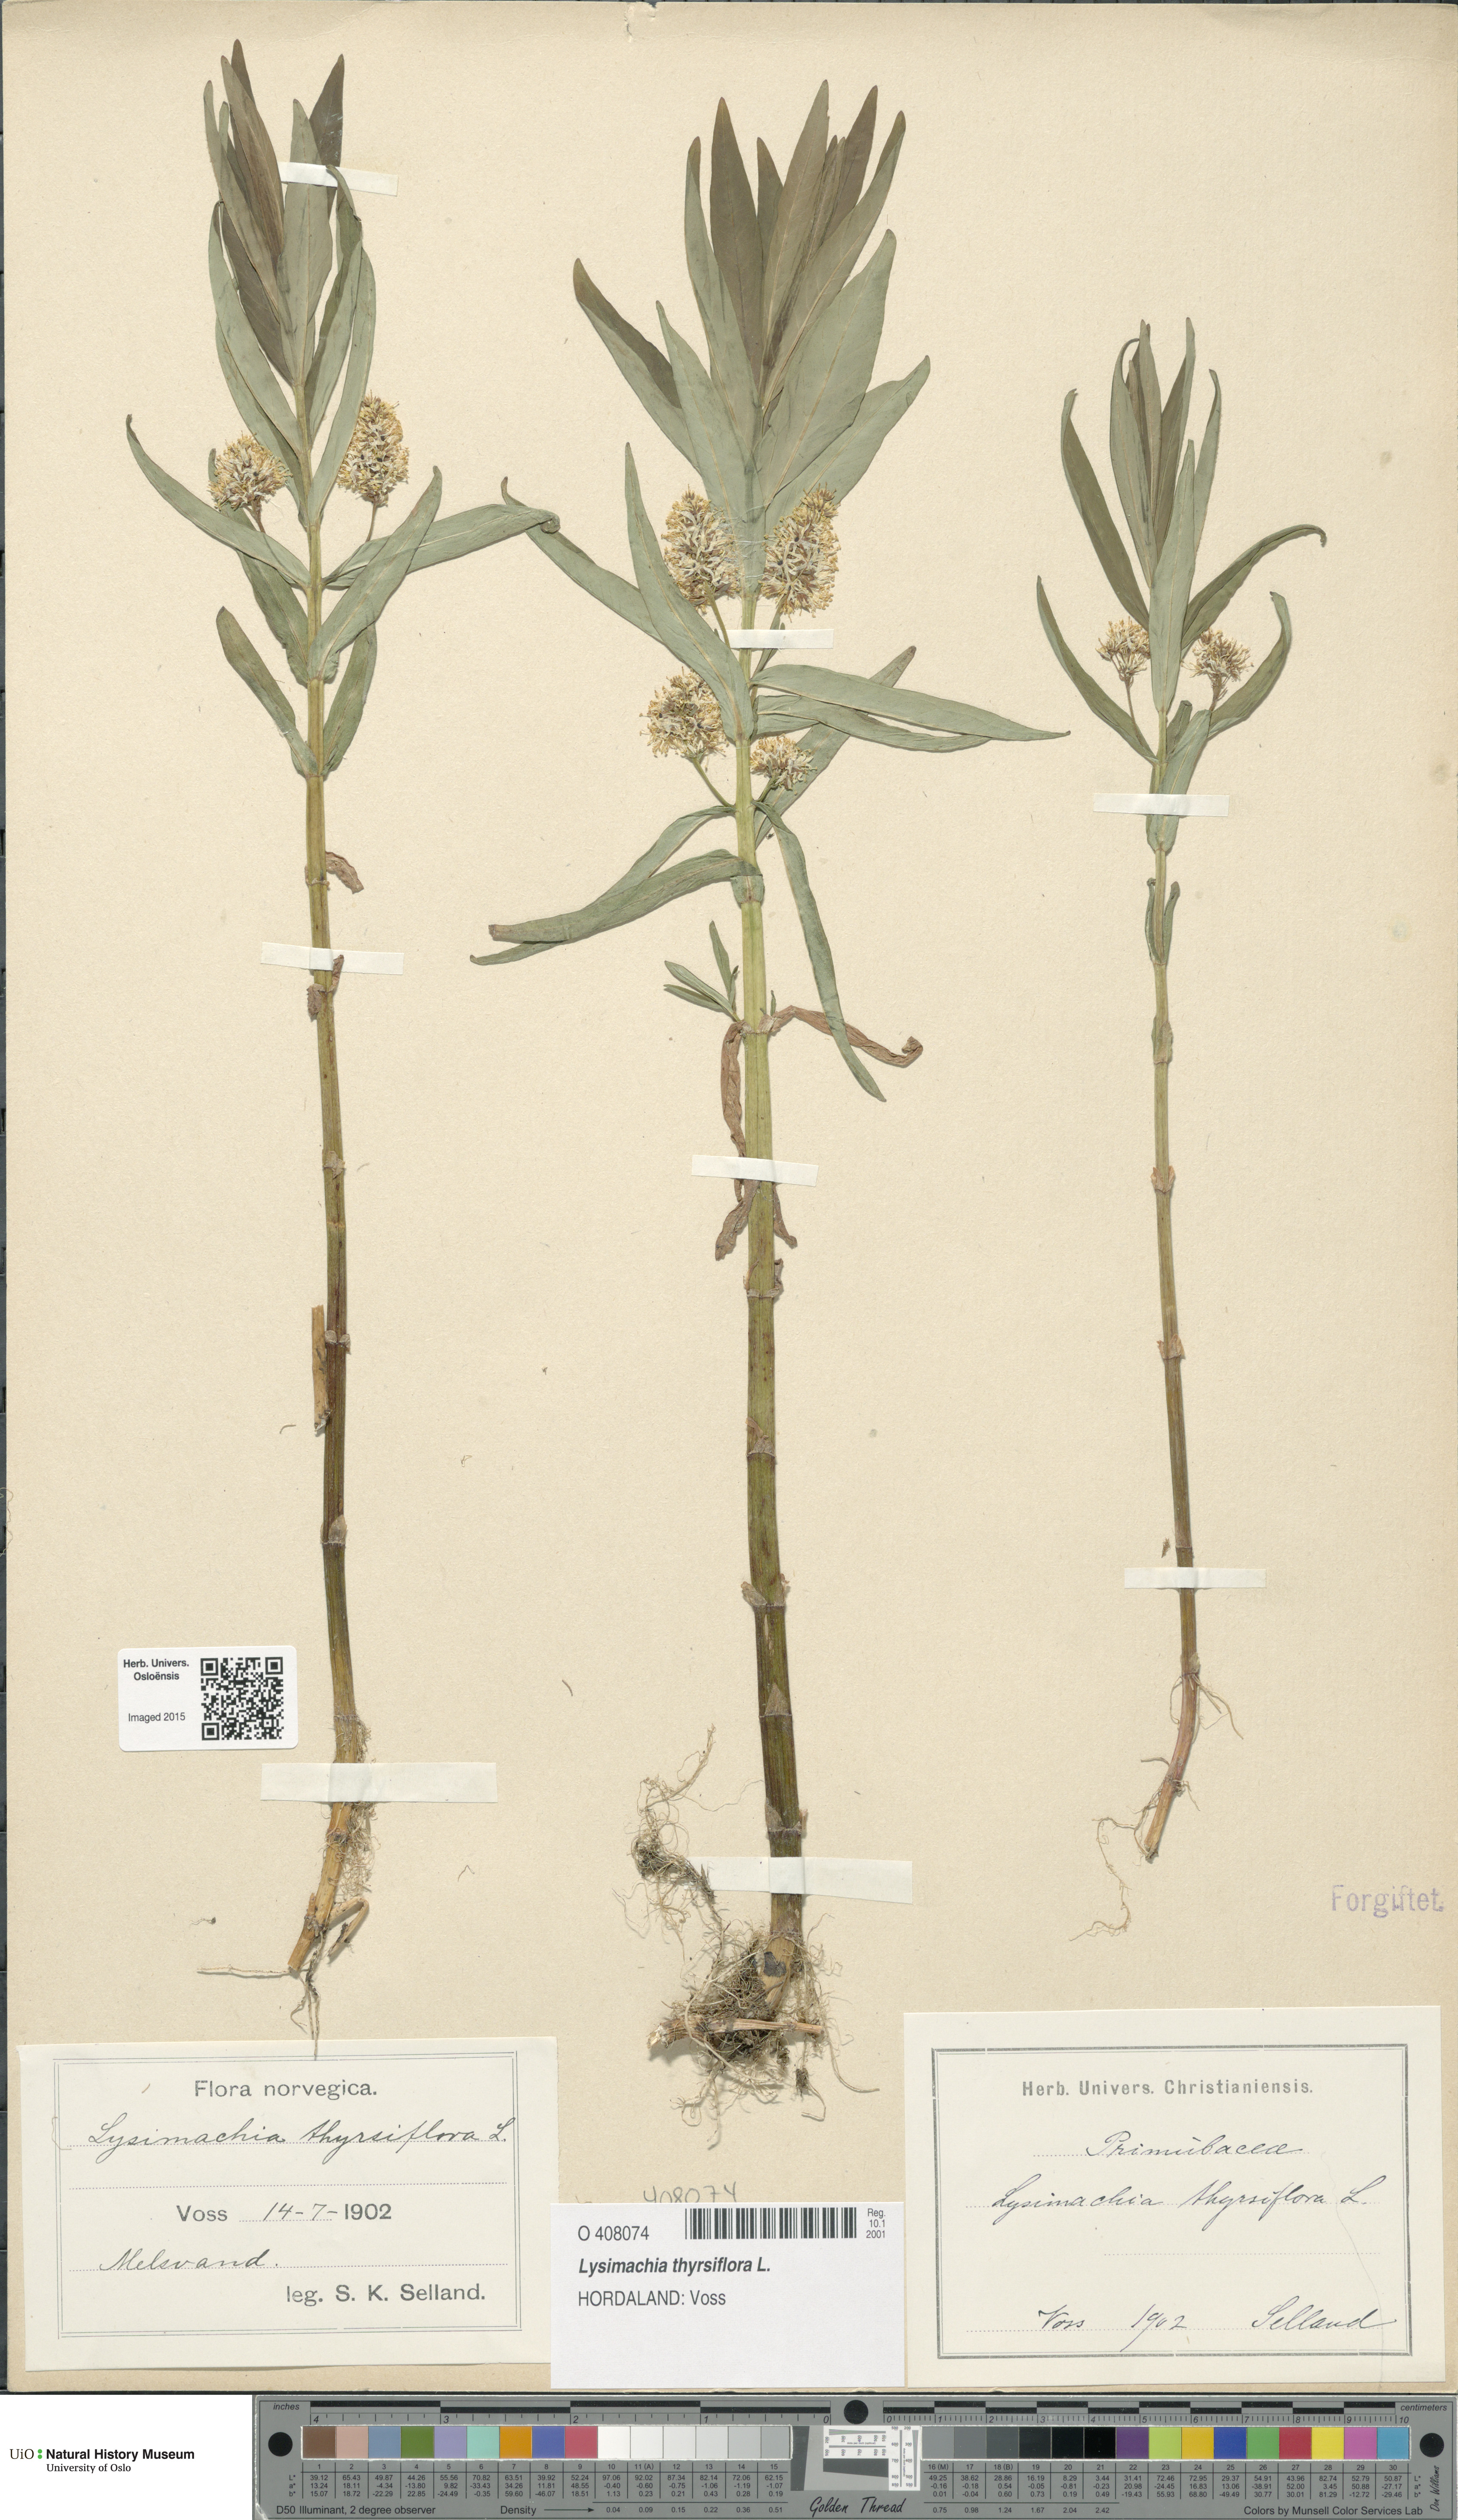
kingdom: Plantae
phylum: Tracheophyta
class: Magnoliopsida
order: Ericales
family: Primulaceae
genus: Lysimachia
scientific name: Lysimachia thyrsiflora
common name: Tufted loosestrife
